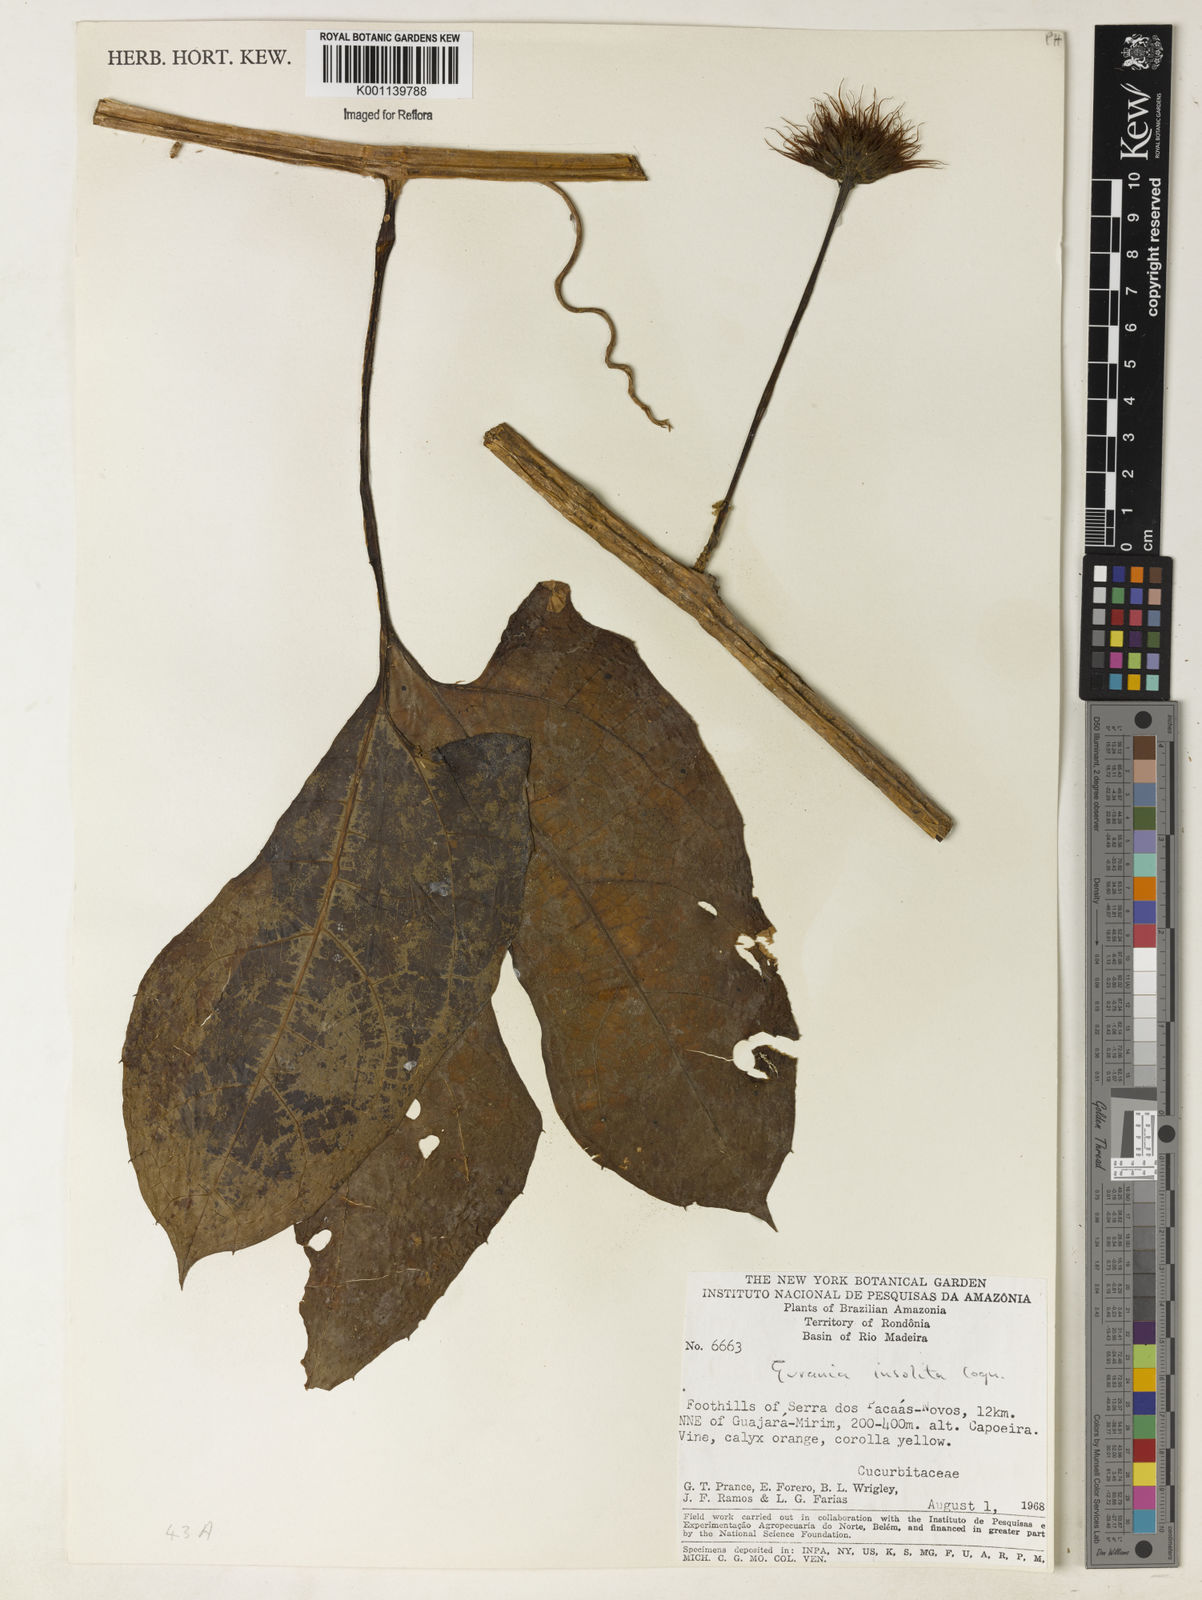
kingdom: Plantae
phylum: Tracheophyta
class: Magnoliopsida
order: Cucurbitales
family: Cucurbitaceae
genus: Gurania
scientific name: Gurania sinuata
